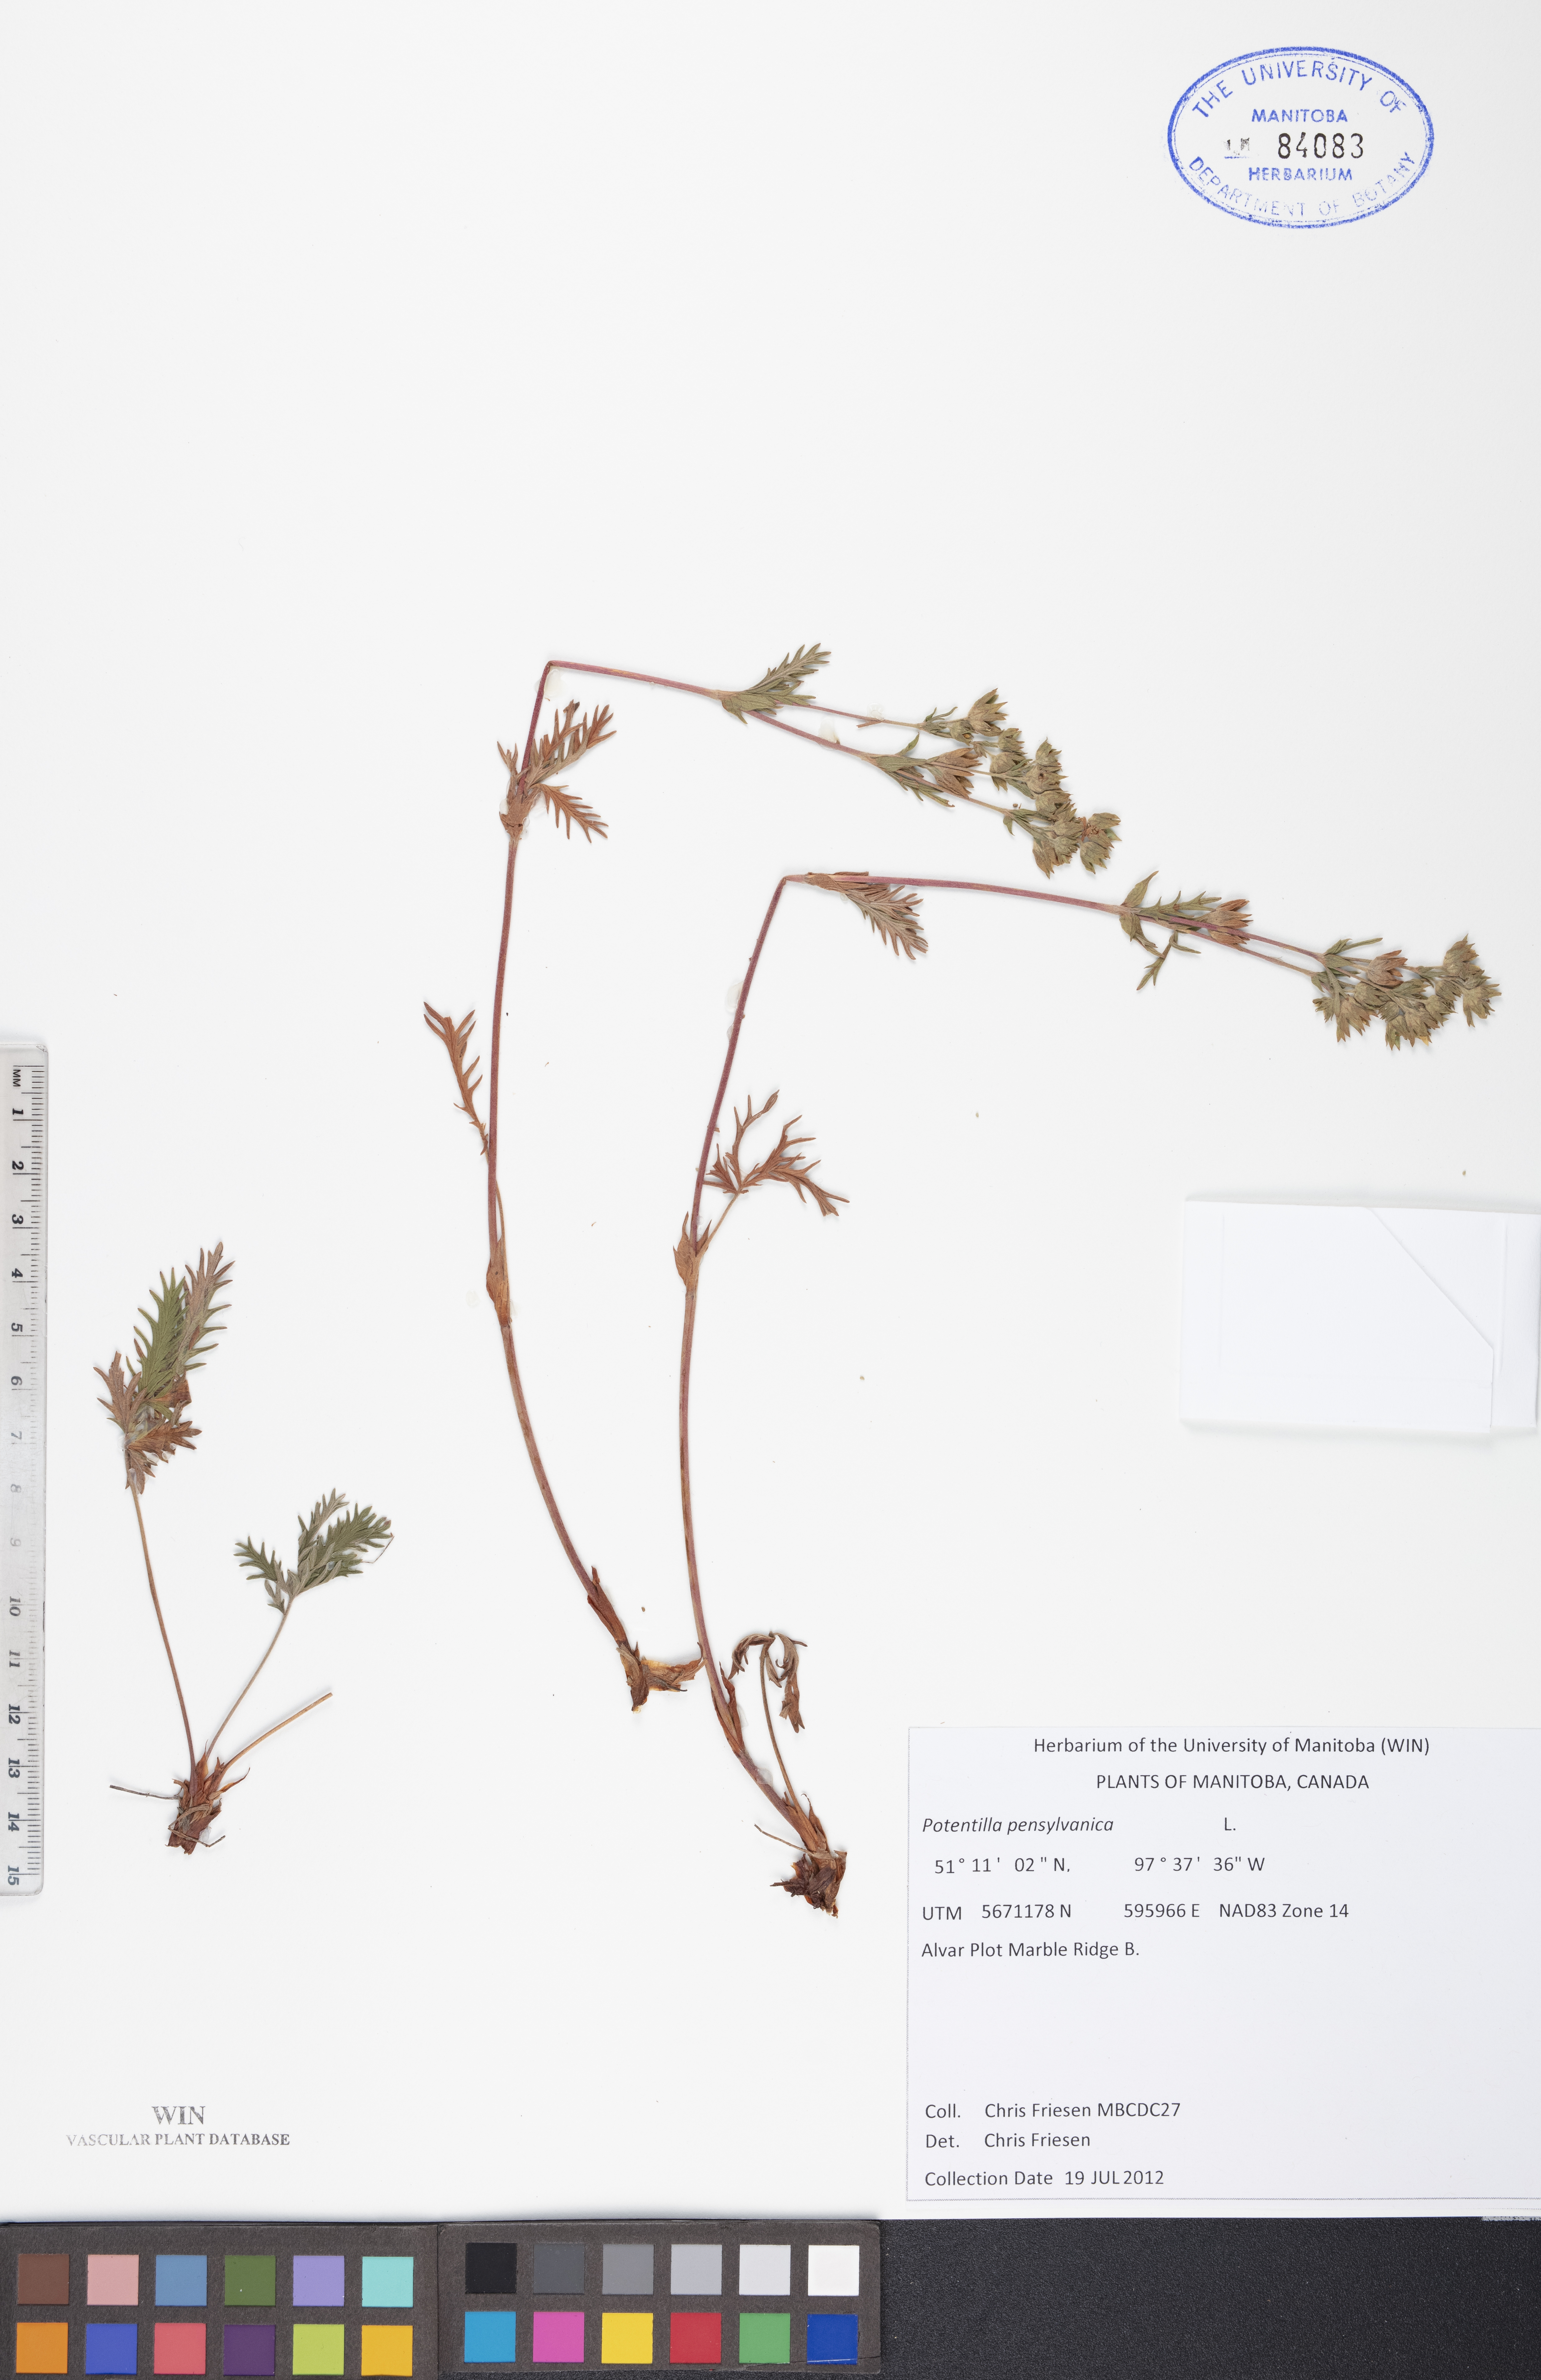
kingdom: Plantae
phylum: Tracheophyta
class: Magnoliopsida
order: Rosales
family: Rosaceae
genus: Potentilla
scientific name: Potentilla pensylvanica
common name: Pennsylvania cinquefoil
